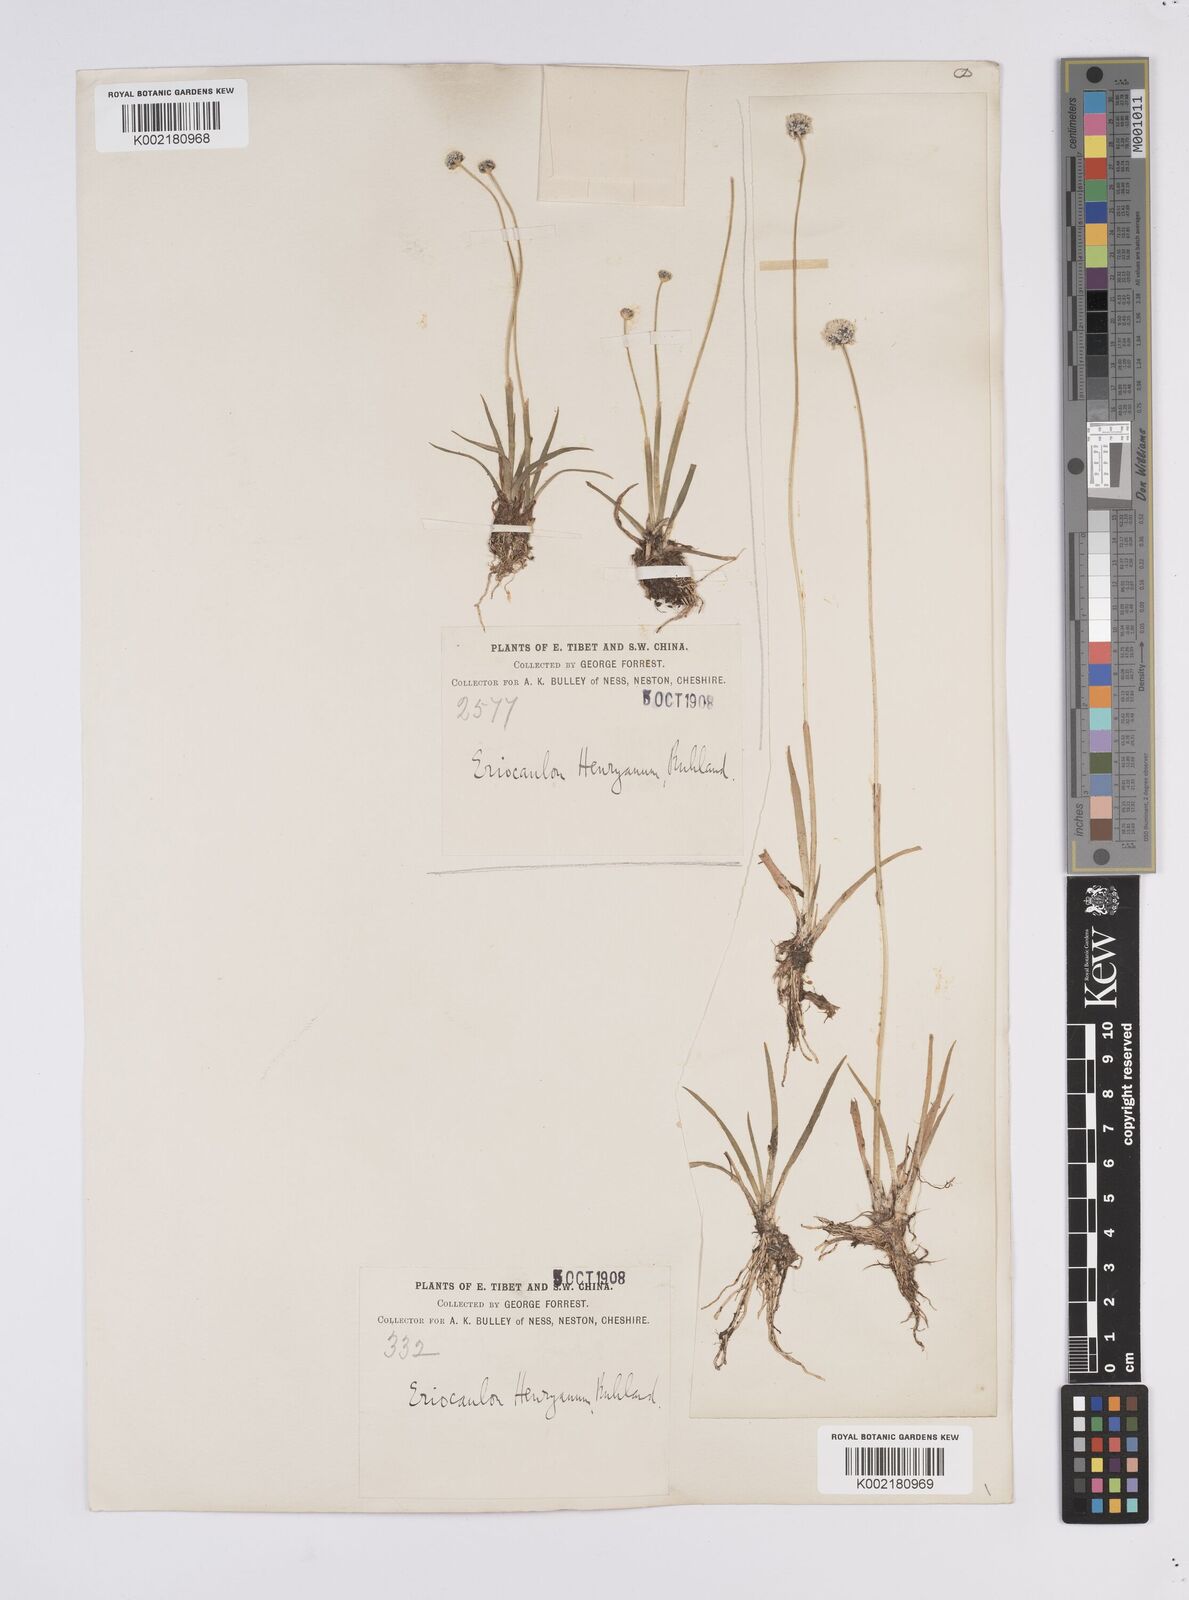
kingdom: Plantae
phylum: Tracheophyta
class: Liliopsida
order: Poales
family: Eriocaulaceae
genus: Eriocaulon
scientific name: Eriocaulon henryanum
